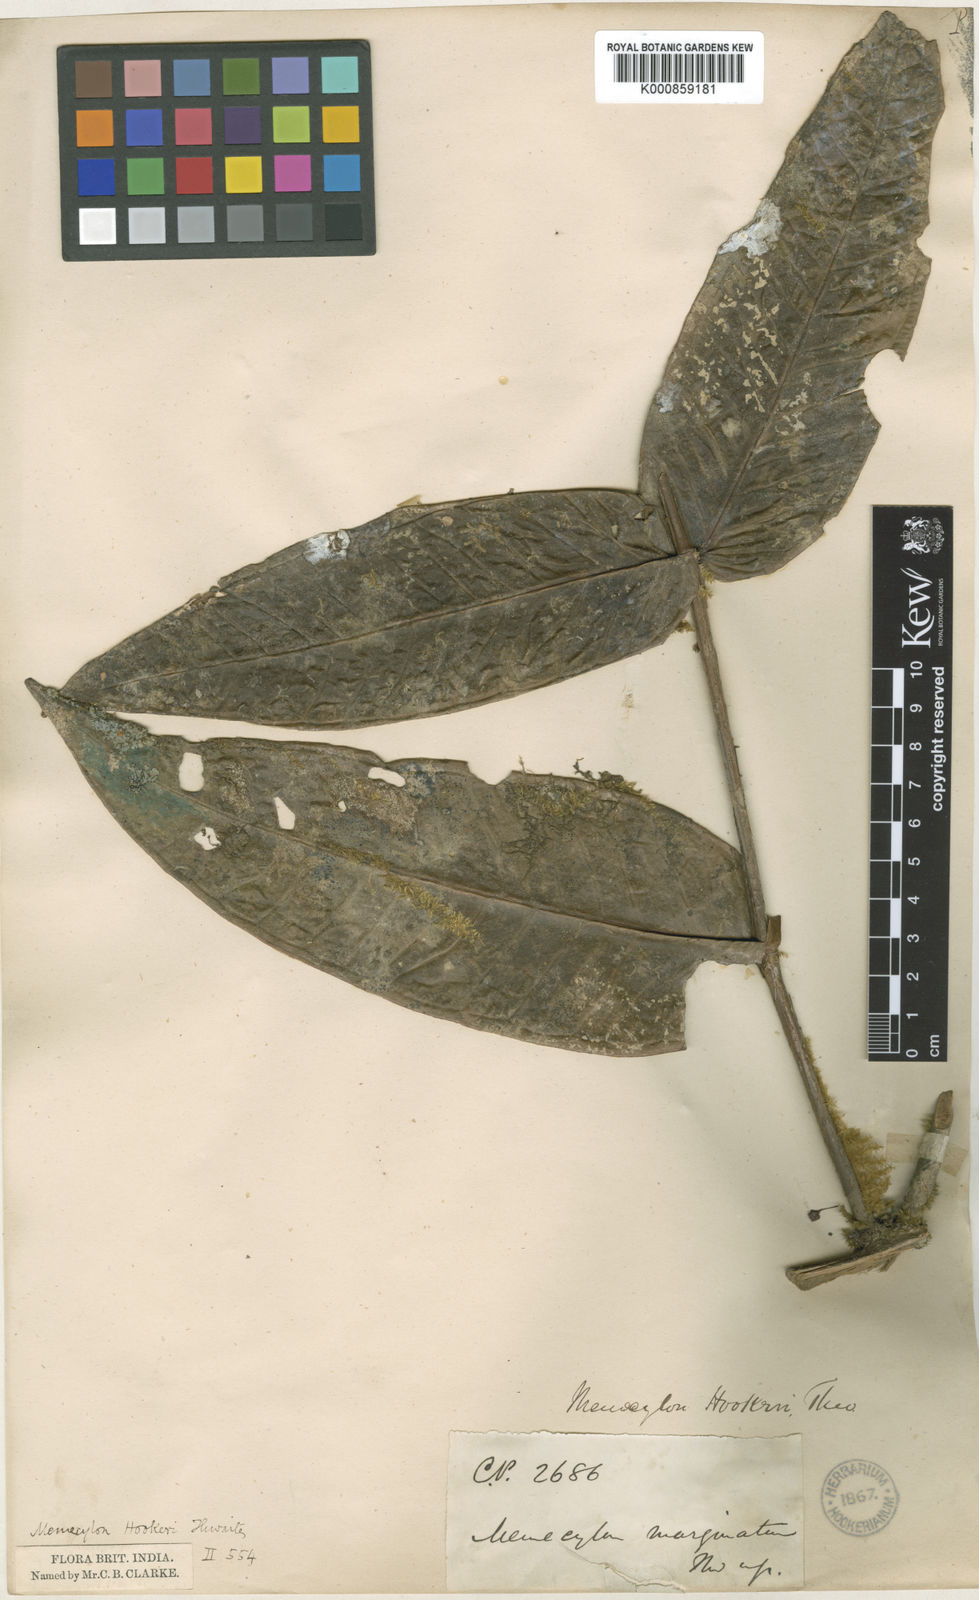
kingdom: Plantae
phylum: Tracheophyta
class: Magnoliopsida
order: Myrtales
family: Melastomataceae
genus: Memecylon
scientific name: Memecylon hookeri
